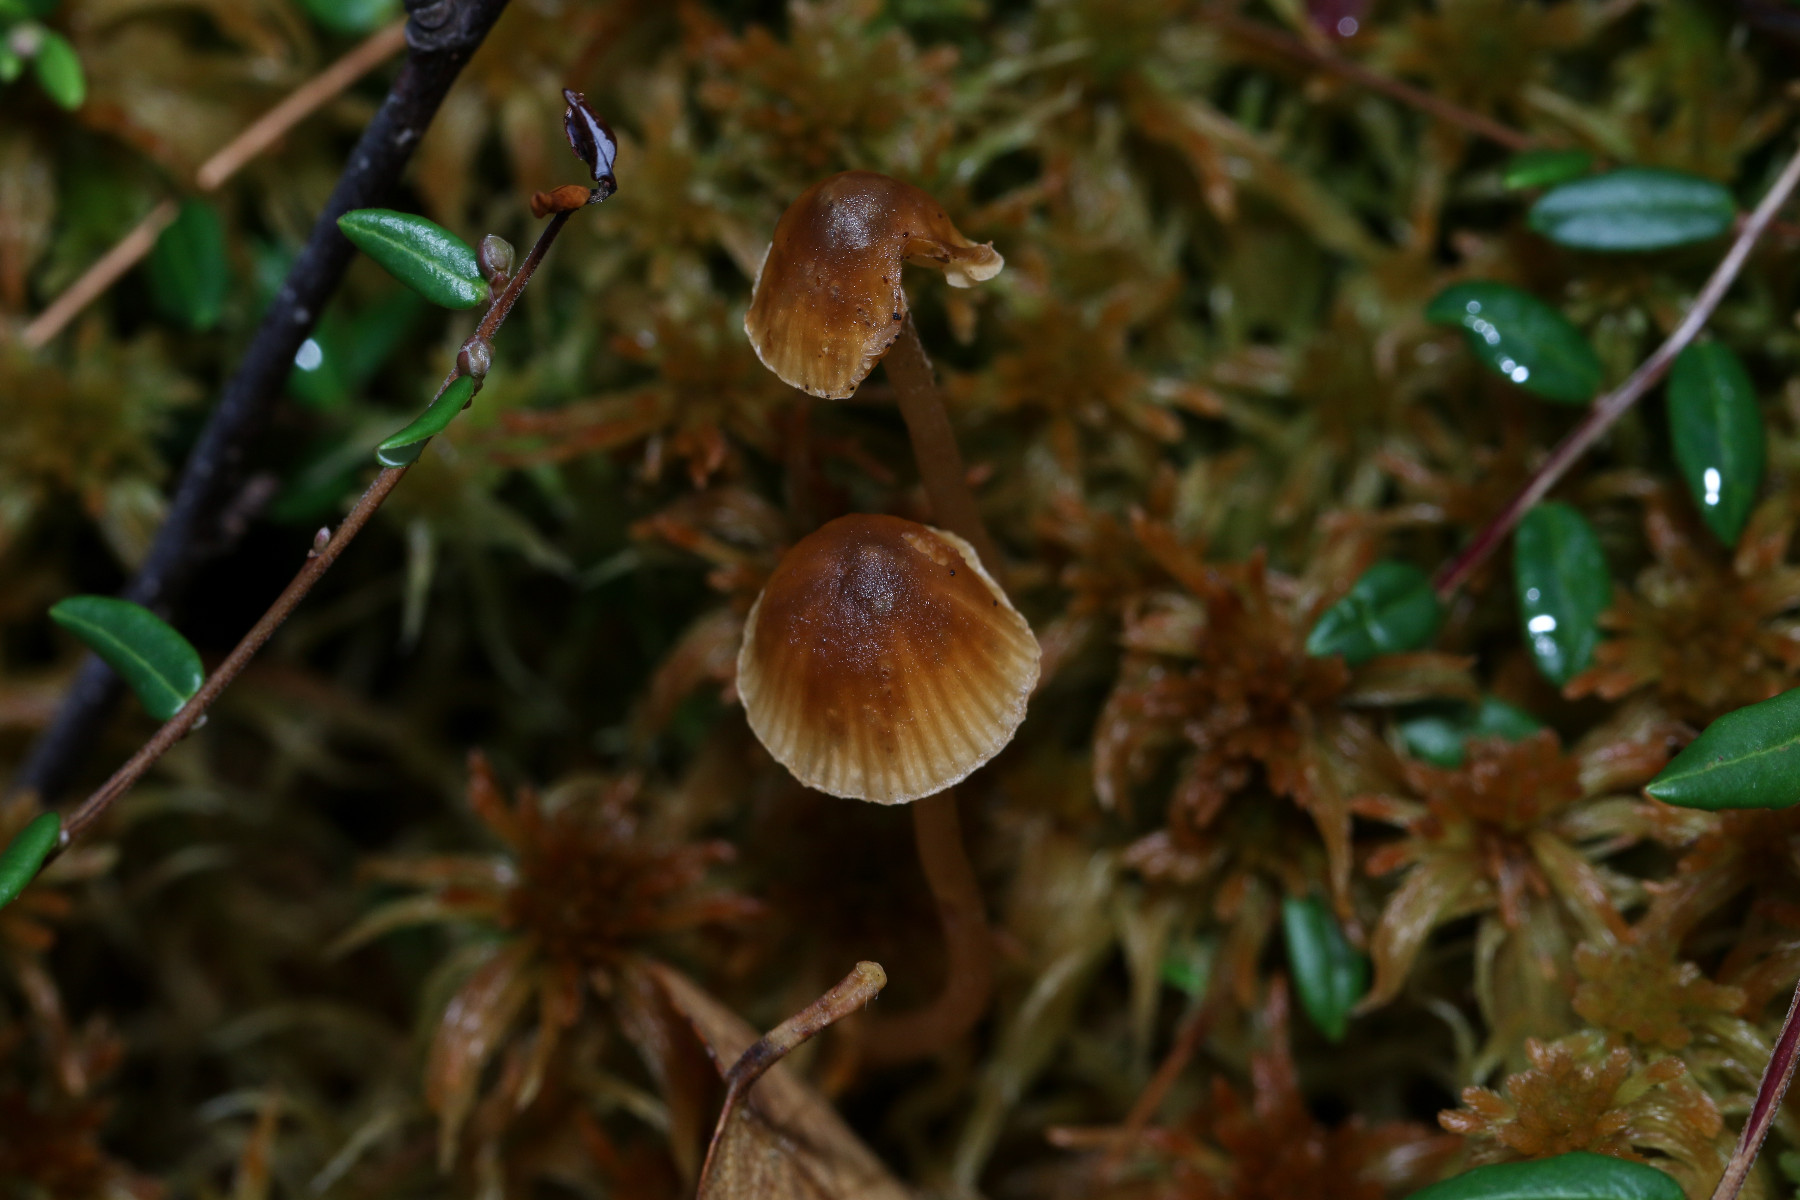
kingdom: Fungi
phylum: Basidiomycota
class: Agaricomycetes
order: Agaricales
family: Hymenogastraceae
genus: Galerina
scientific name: Galerina
